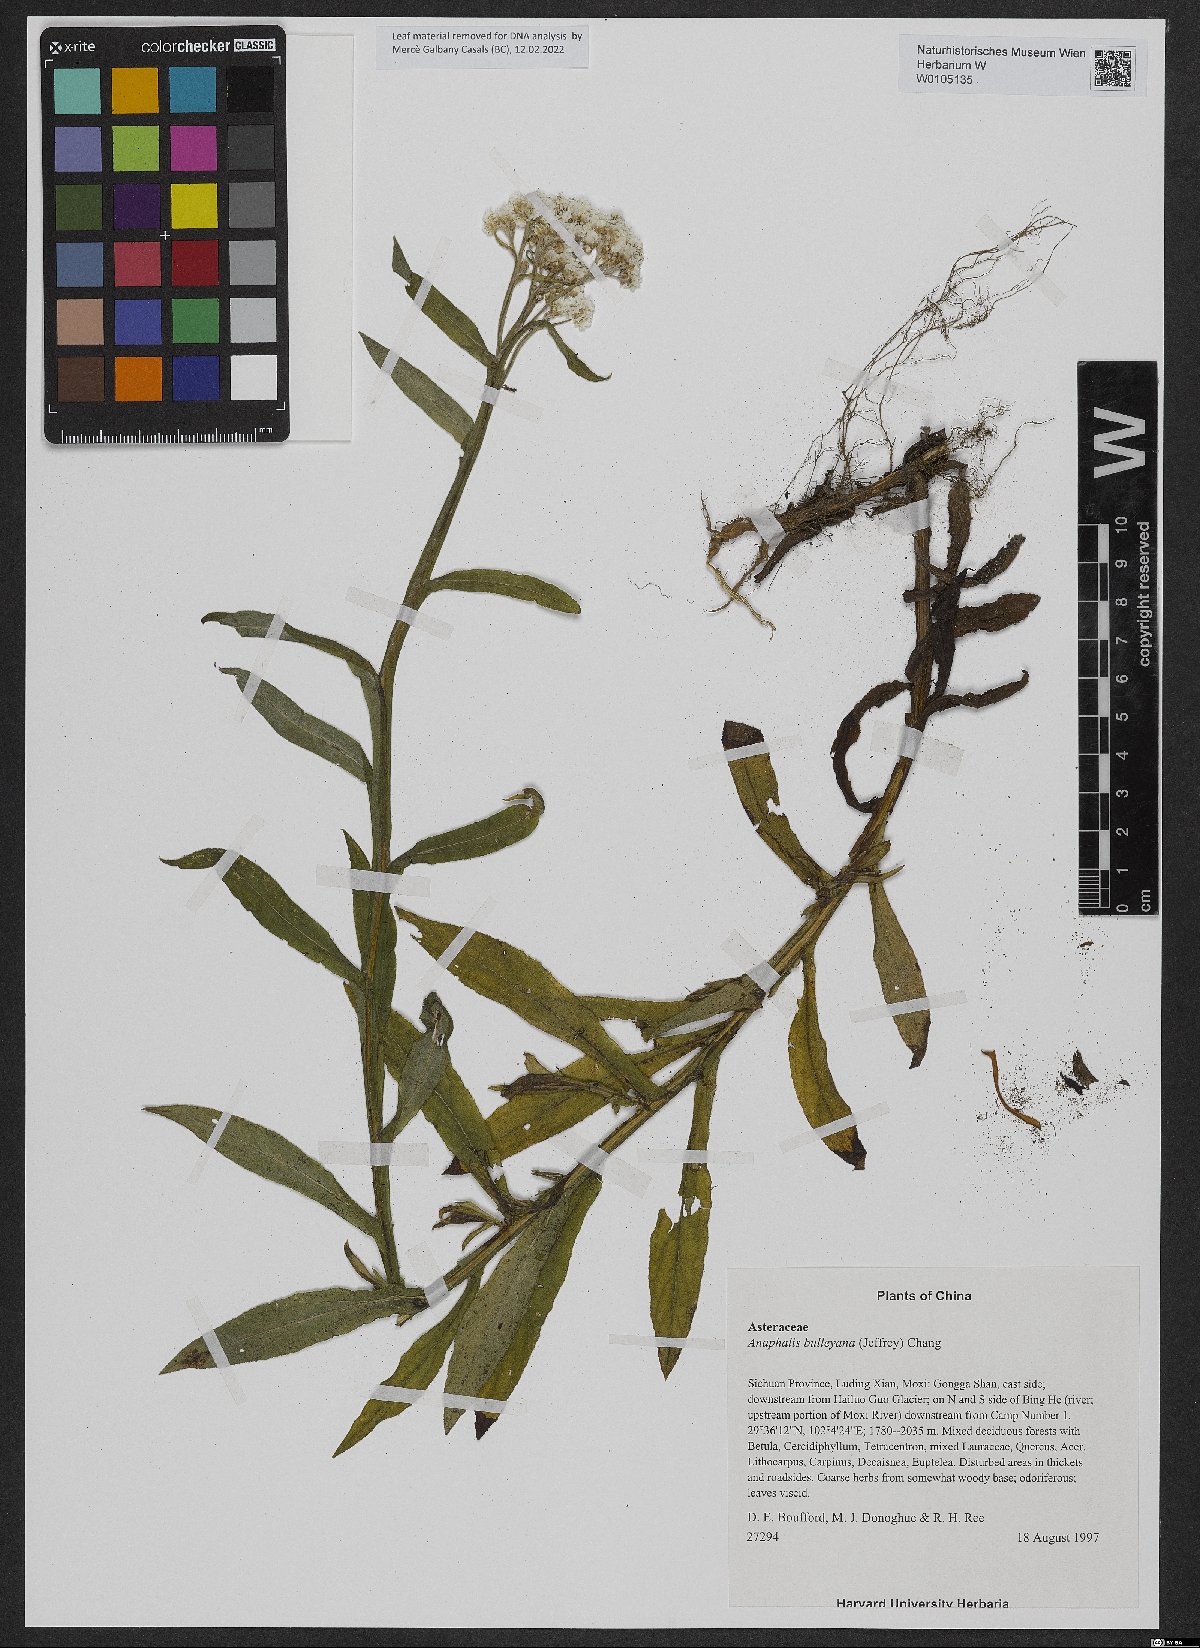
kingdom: Plantae
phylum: Tracheophyta
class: Magnoliopsida
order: Asterales
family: Asteraceae
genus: Anaphalis
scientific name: Anaphalis bulleyana
